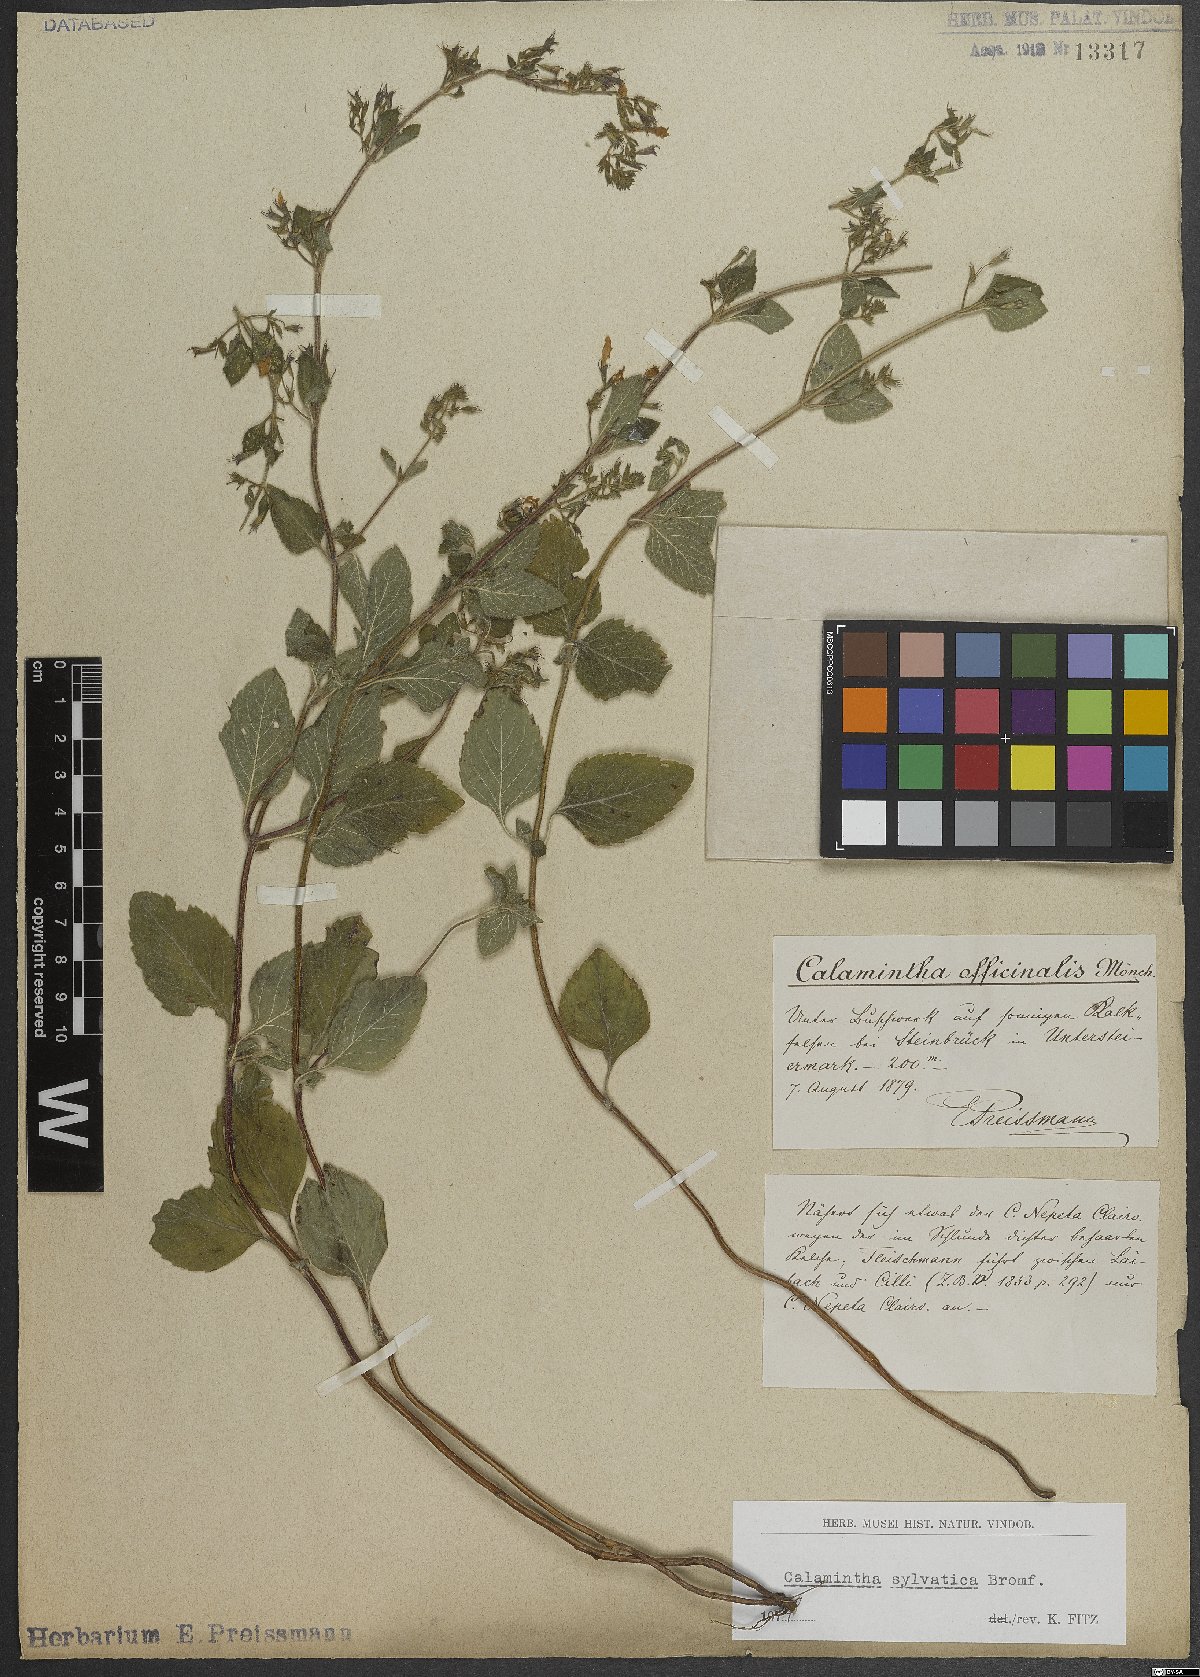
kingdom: Plantae
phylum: Tracheophyta
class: Magnoliopsida
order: Lamiales
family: Lamiaceae
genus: Clinopodium
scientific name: Clinopodium menthifolium
